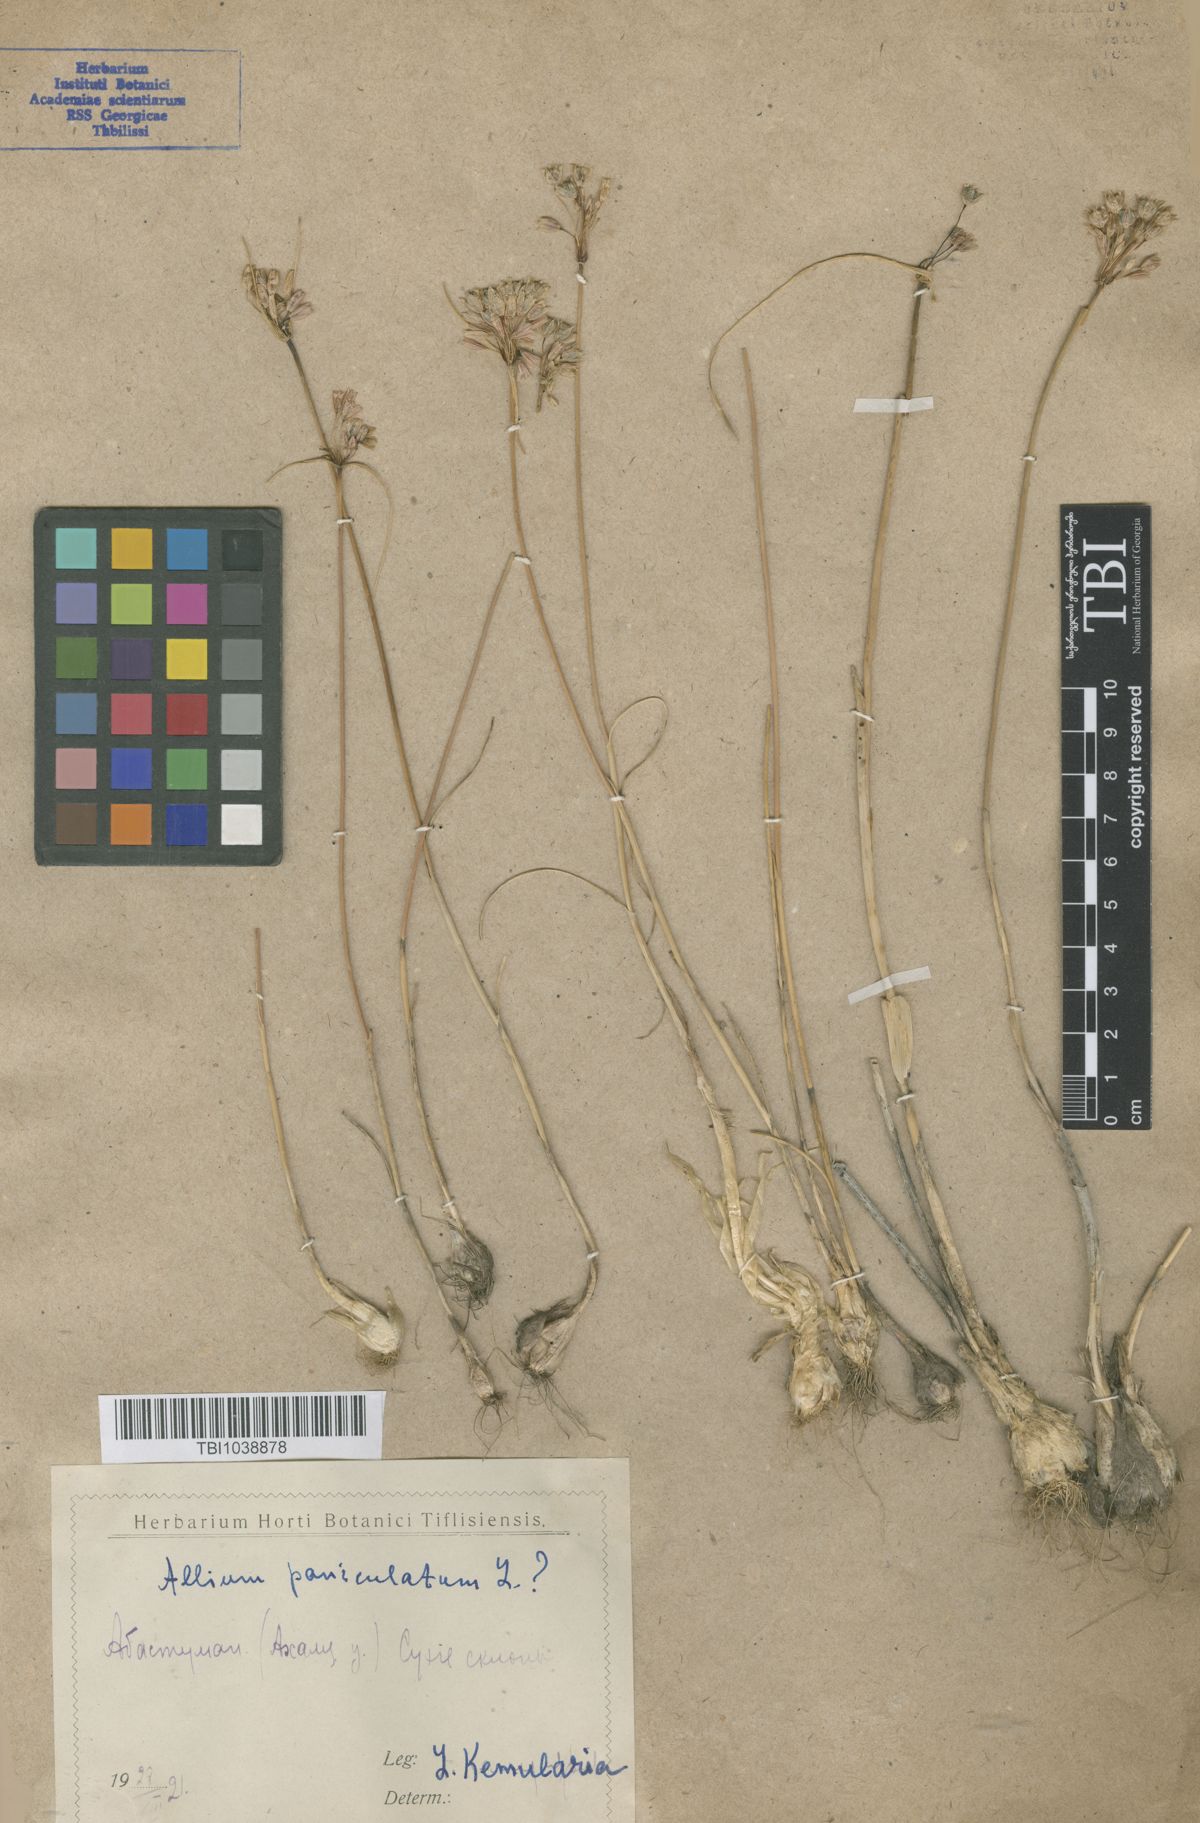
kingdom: Plantae
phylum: Tracheophyta
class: Liliopsida
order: Asparagales
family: Amaryllidaceae
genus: Allium
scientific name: Allium paniculatum
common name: Pale garlic
